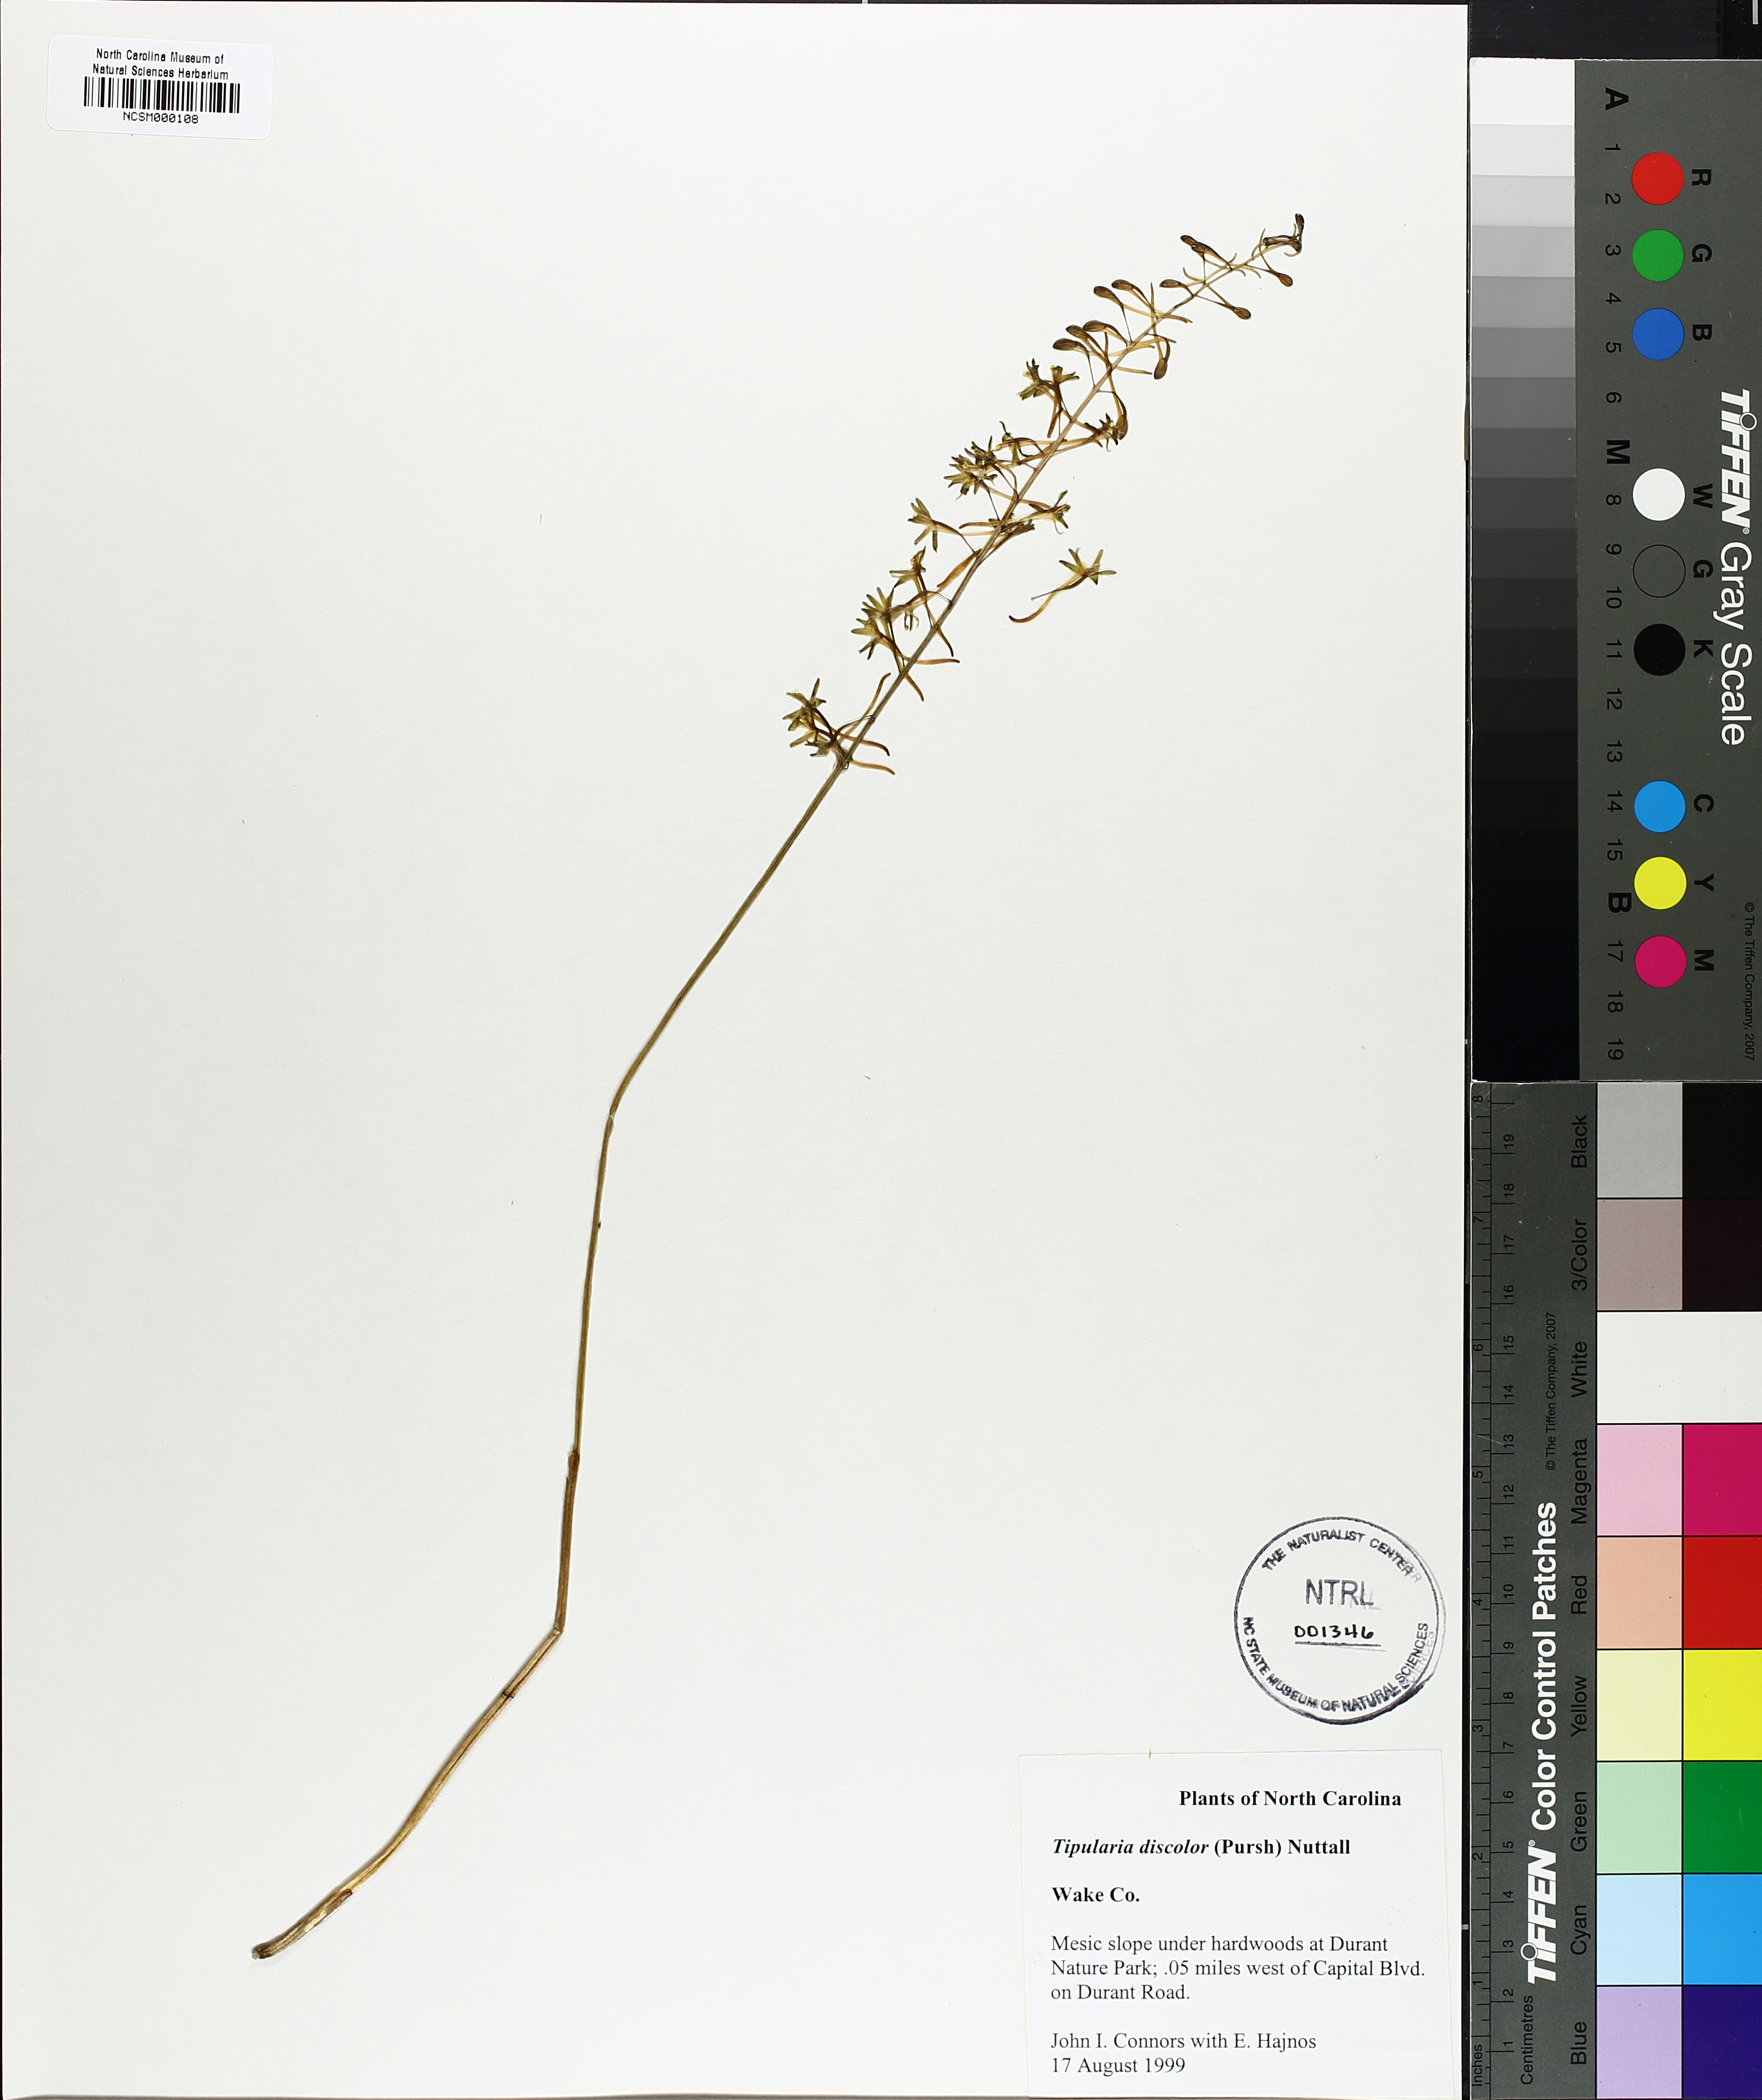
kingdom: Plantae
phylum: Tracheophyta
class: Liliopsida
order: Asparagales
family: Orchidaceae
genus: Tipularia
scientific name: Tipularia discolor
